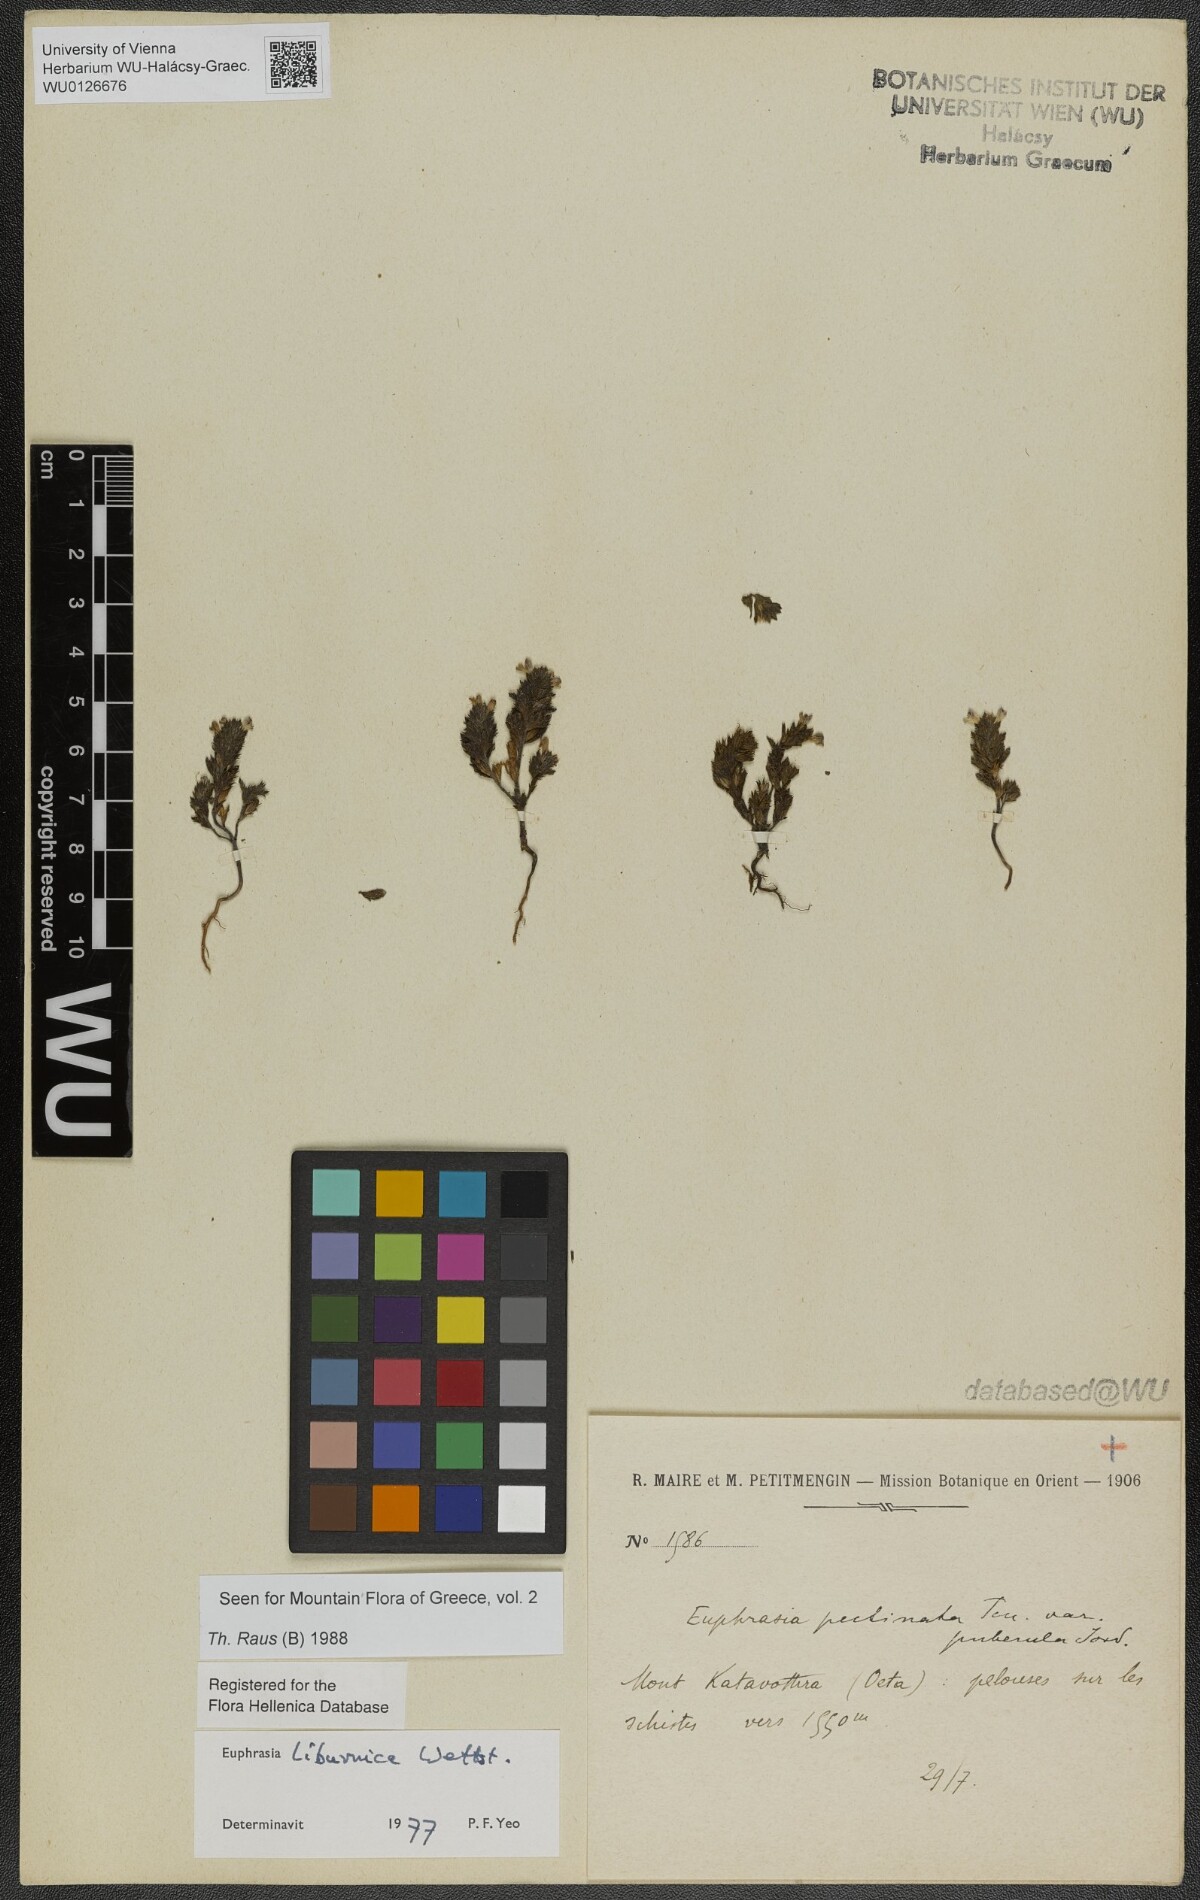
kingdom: Plantae
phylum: Tracheophyta
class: Magnoliopsida
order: Lamiales
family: Orobanchaceae
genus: Euphrasia
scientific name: Euphrasia liburnica
